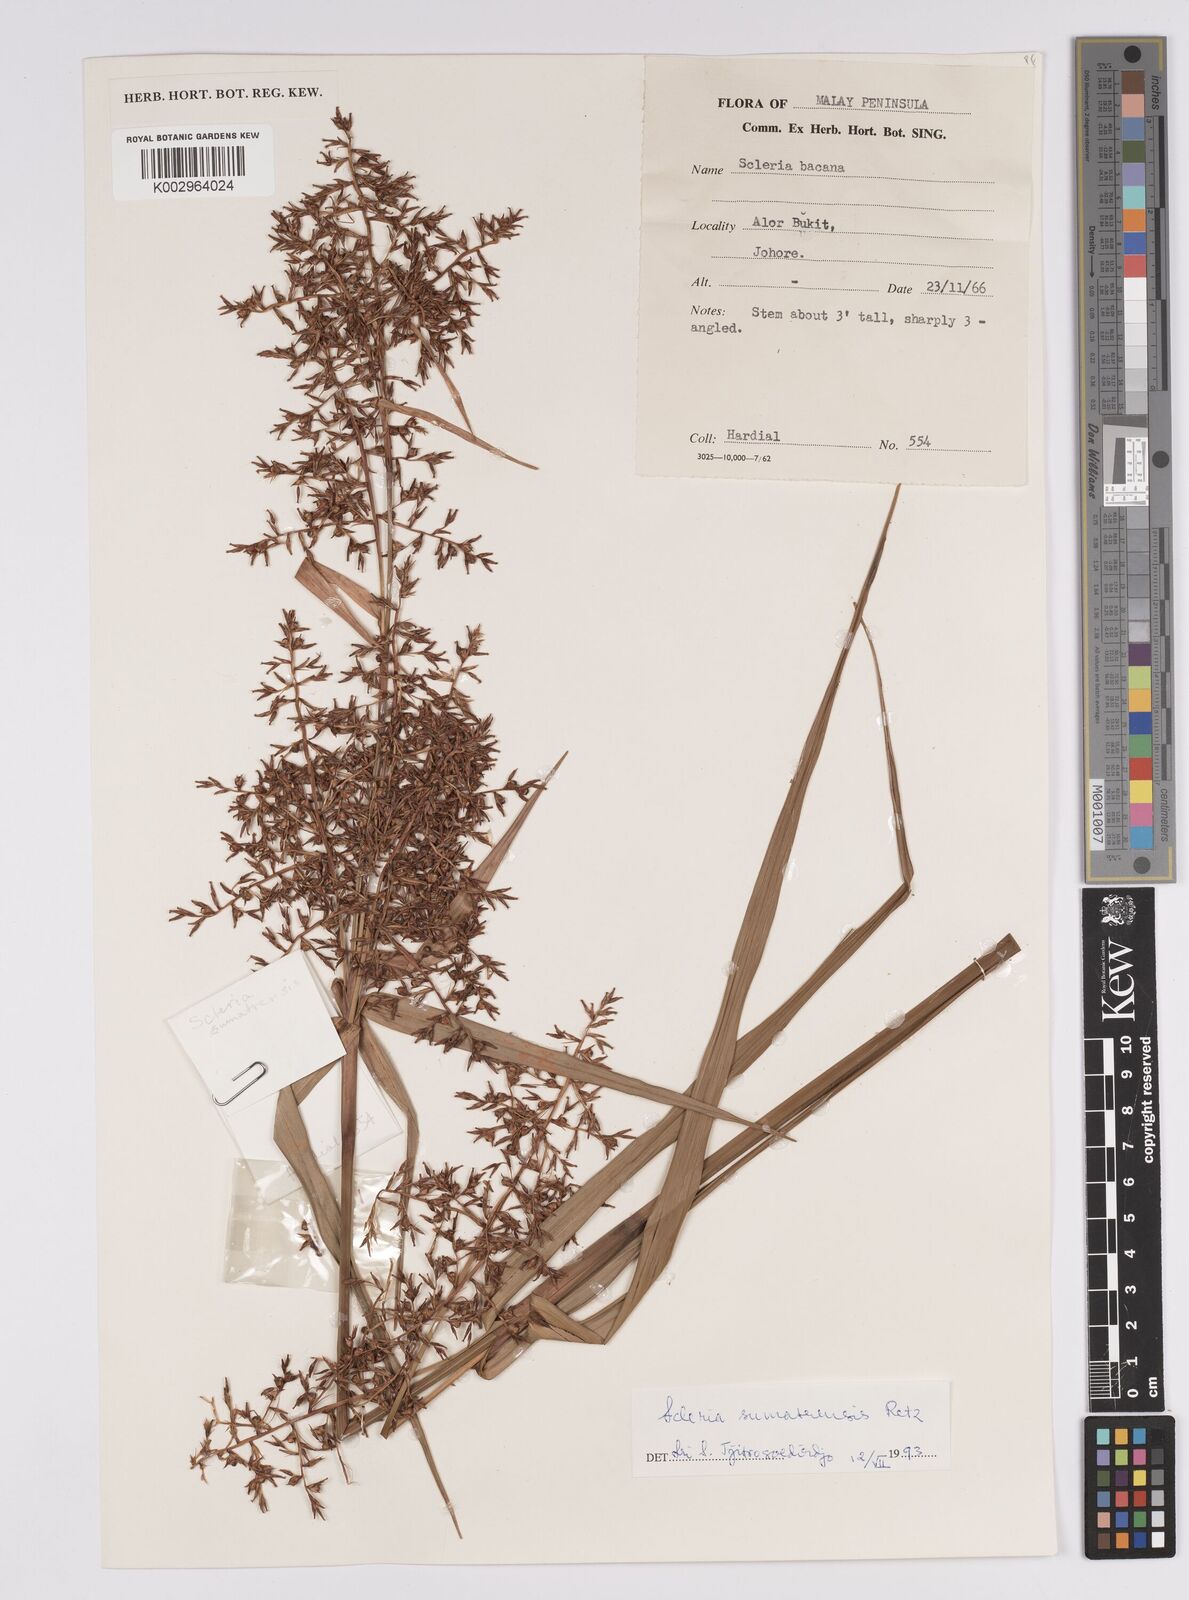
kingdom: Plantae
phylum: Tracheophyta
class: Liliopsida
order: Poales
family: Cyperaceae
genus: Scleria
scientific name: Scleria sumatrensis
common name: Sumatran scleria
